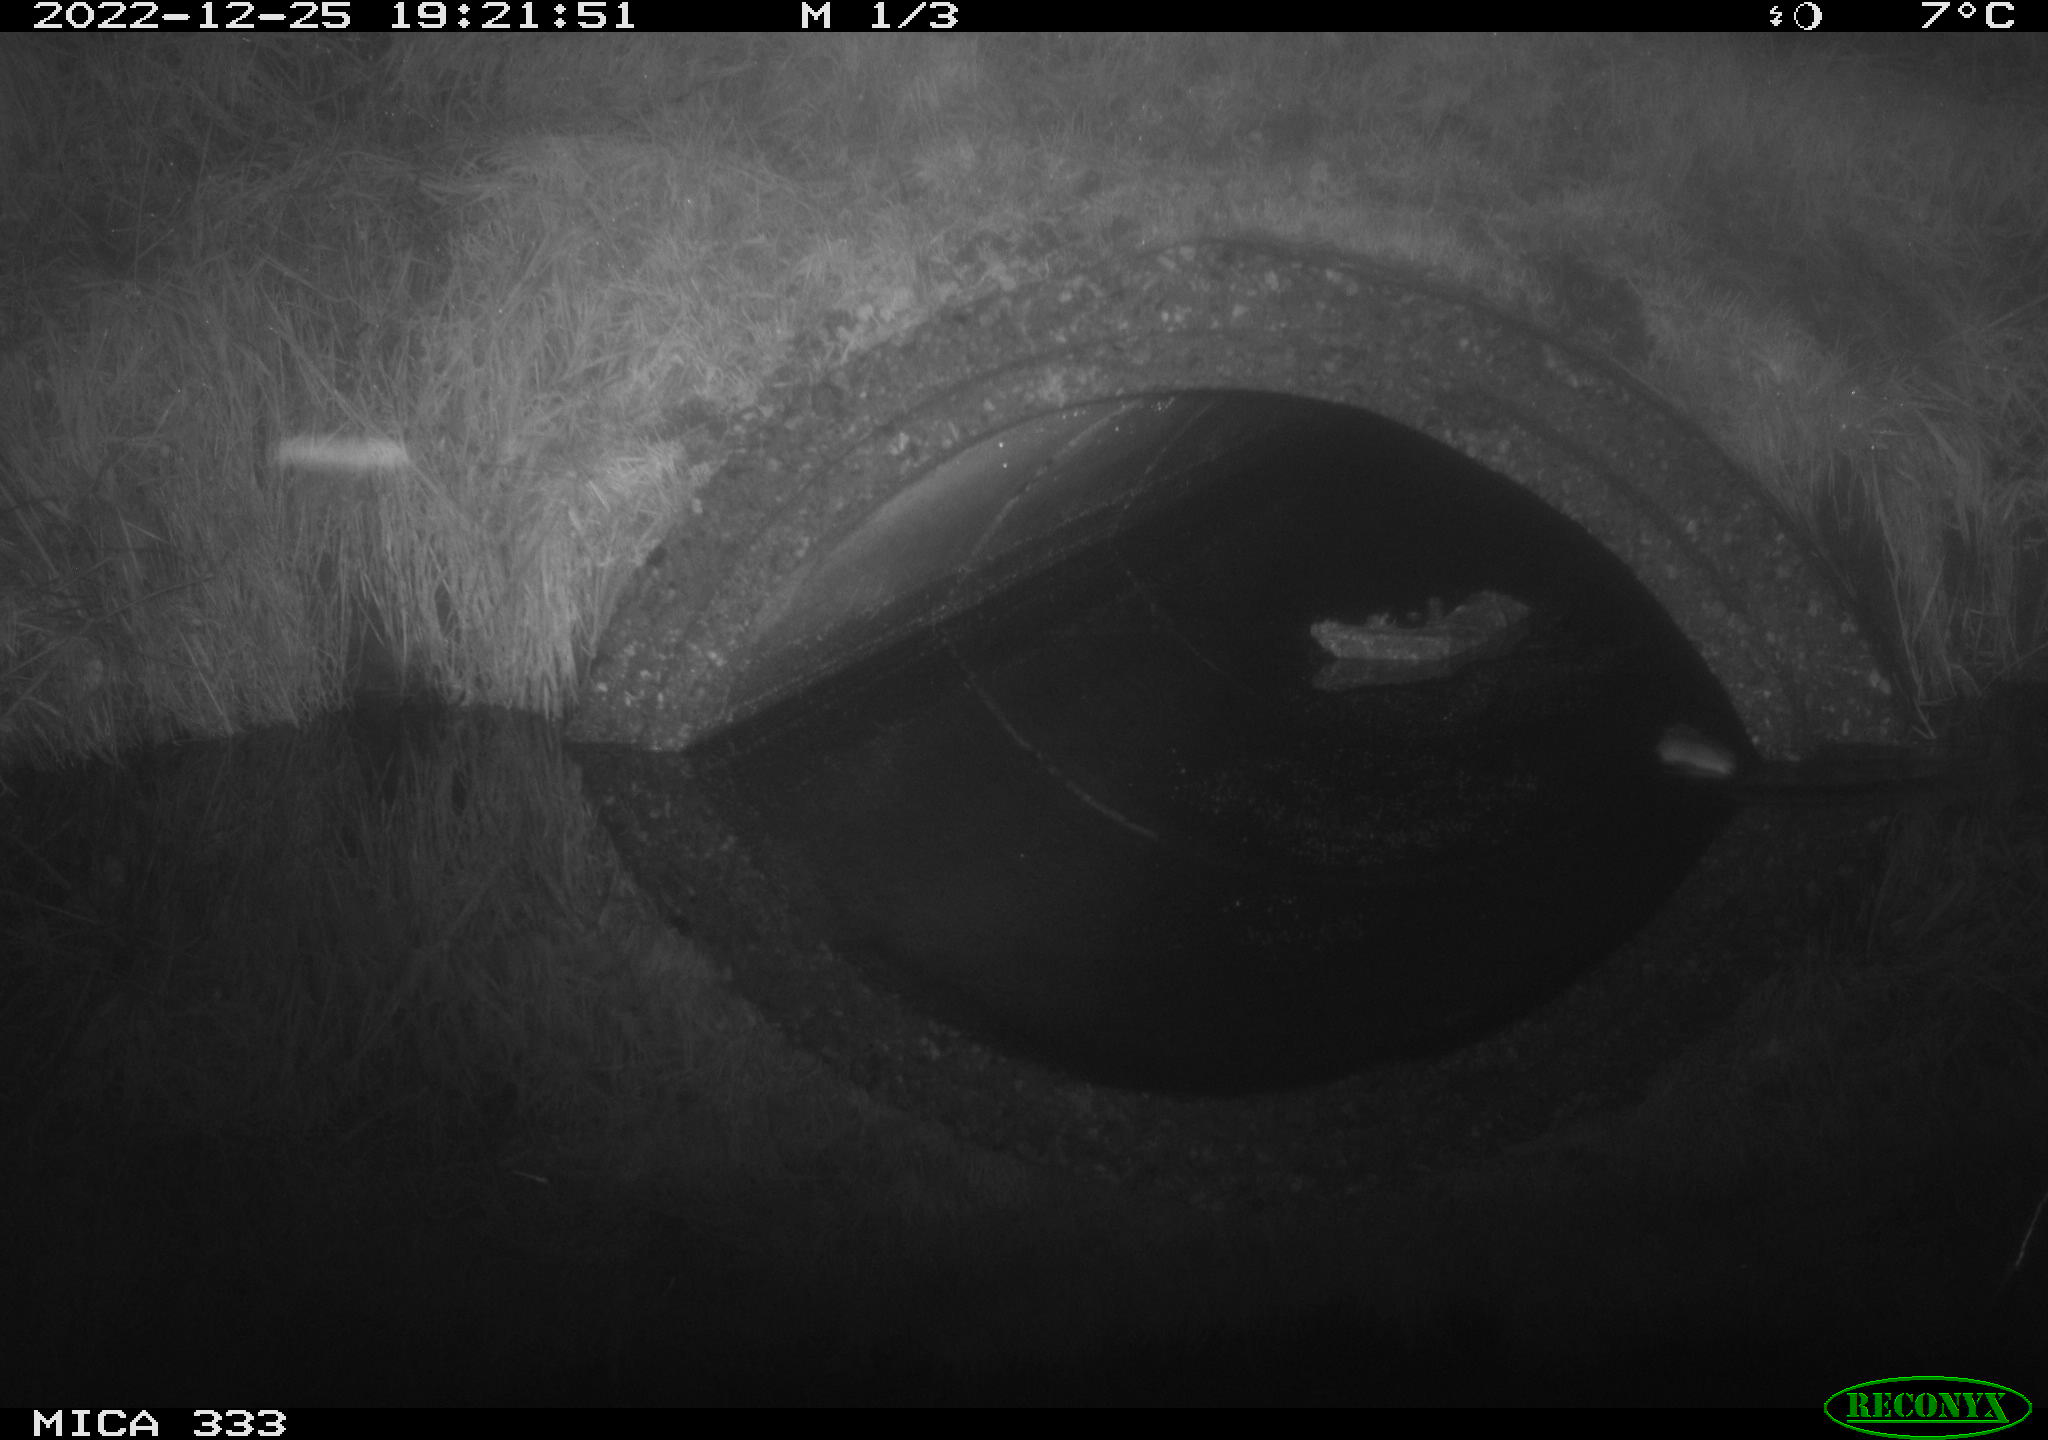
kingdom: Animalia
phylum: Chordata
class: Mammalia
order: Rodentia
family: Muridae
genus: Rattus
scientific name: Rattus norvegicus
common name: Brown rat
